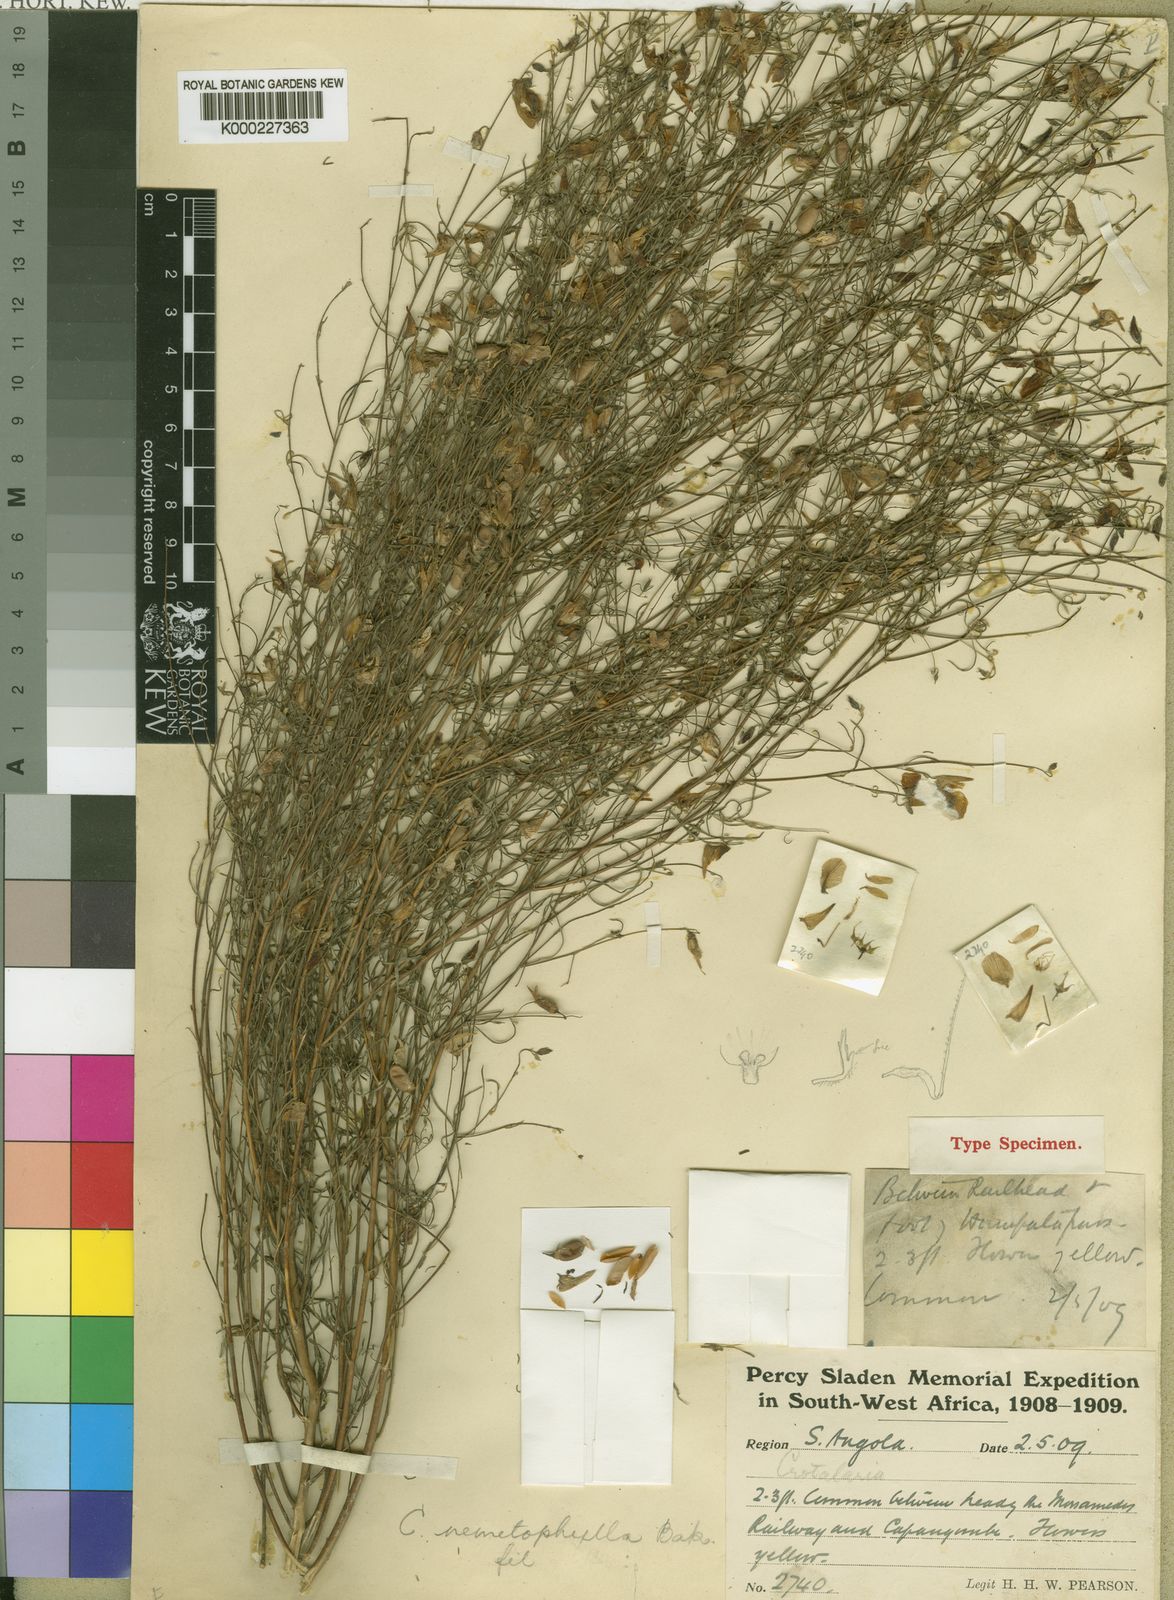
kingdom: Plantae
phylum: Tracheophyta
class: Magnoliopsida
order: Fabales
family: Fabaceae
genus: Crotalaria
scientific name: Crotalaria nematophylla
